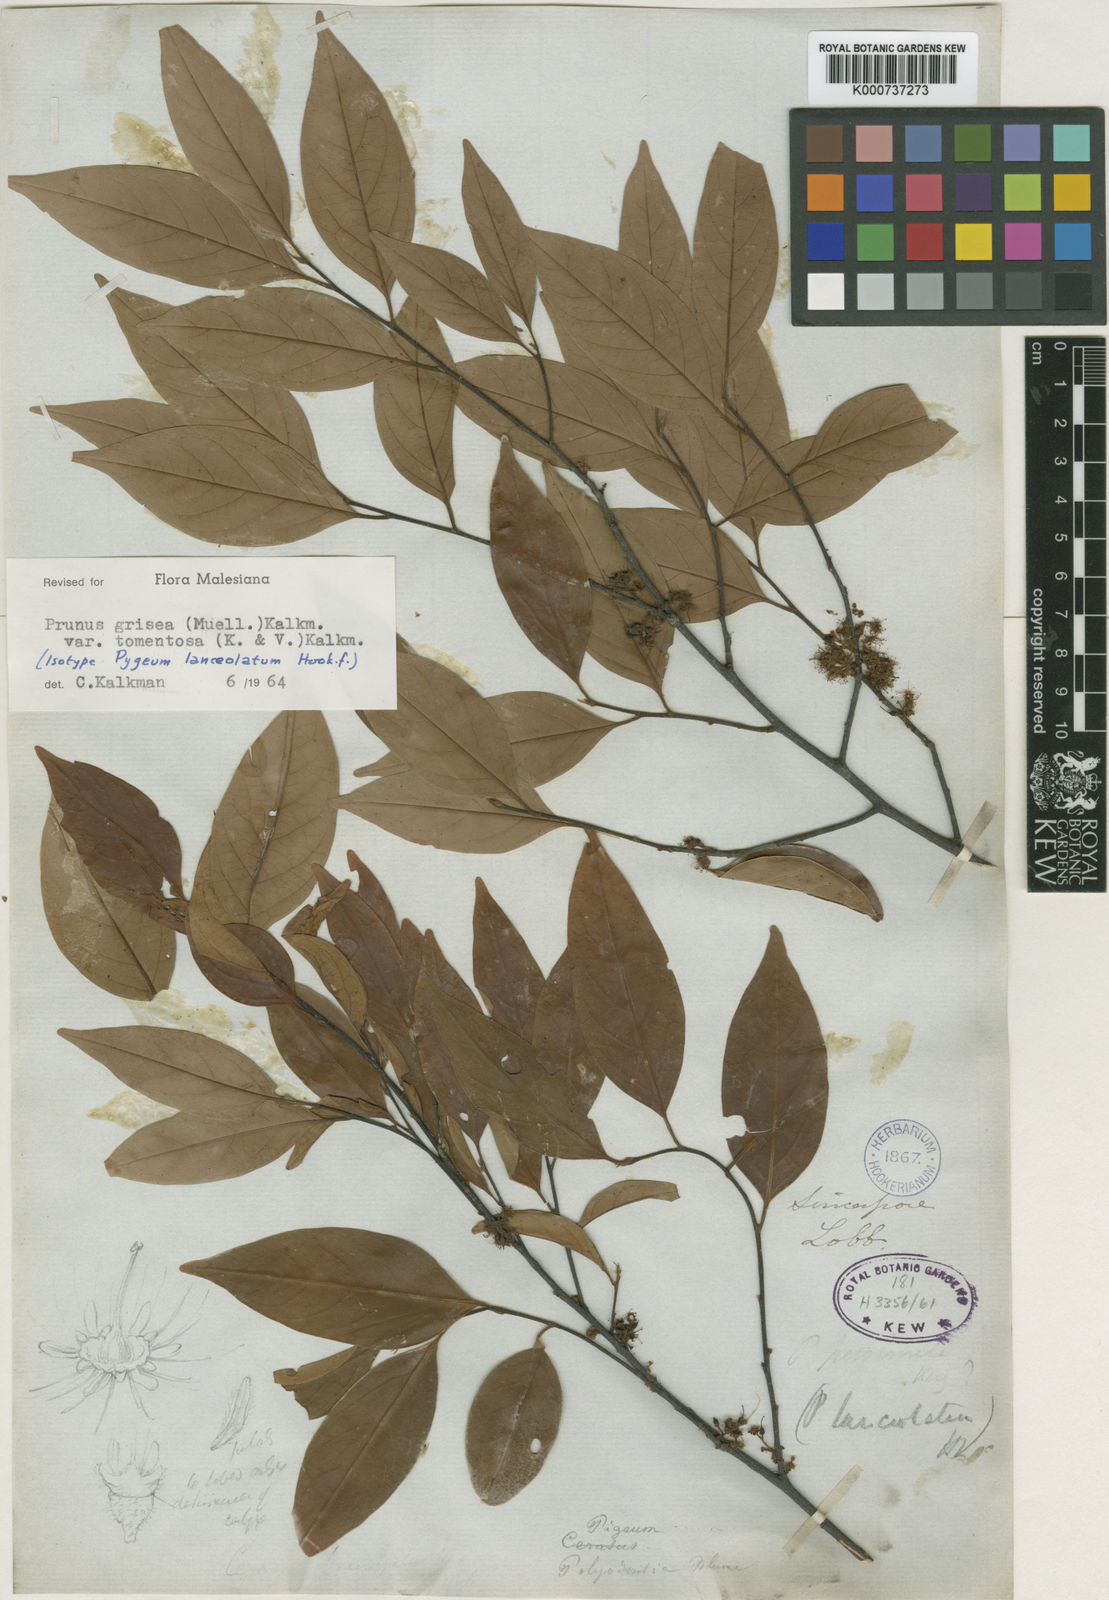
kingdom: Plantae
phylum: Tracheophyta
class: Magnoliopsida
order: Rosales
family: Rosaceae
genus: Prunus
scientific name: Prunus
